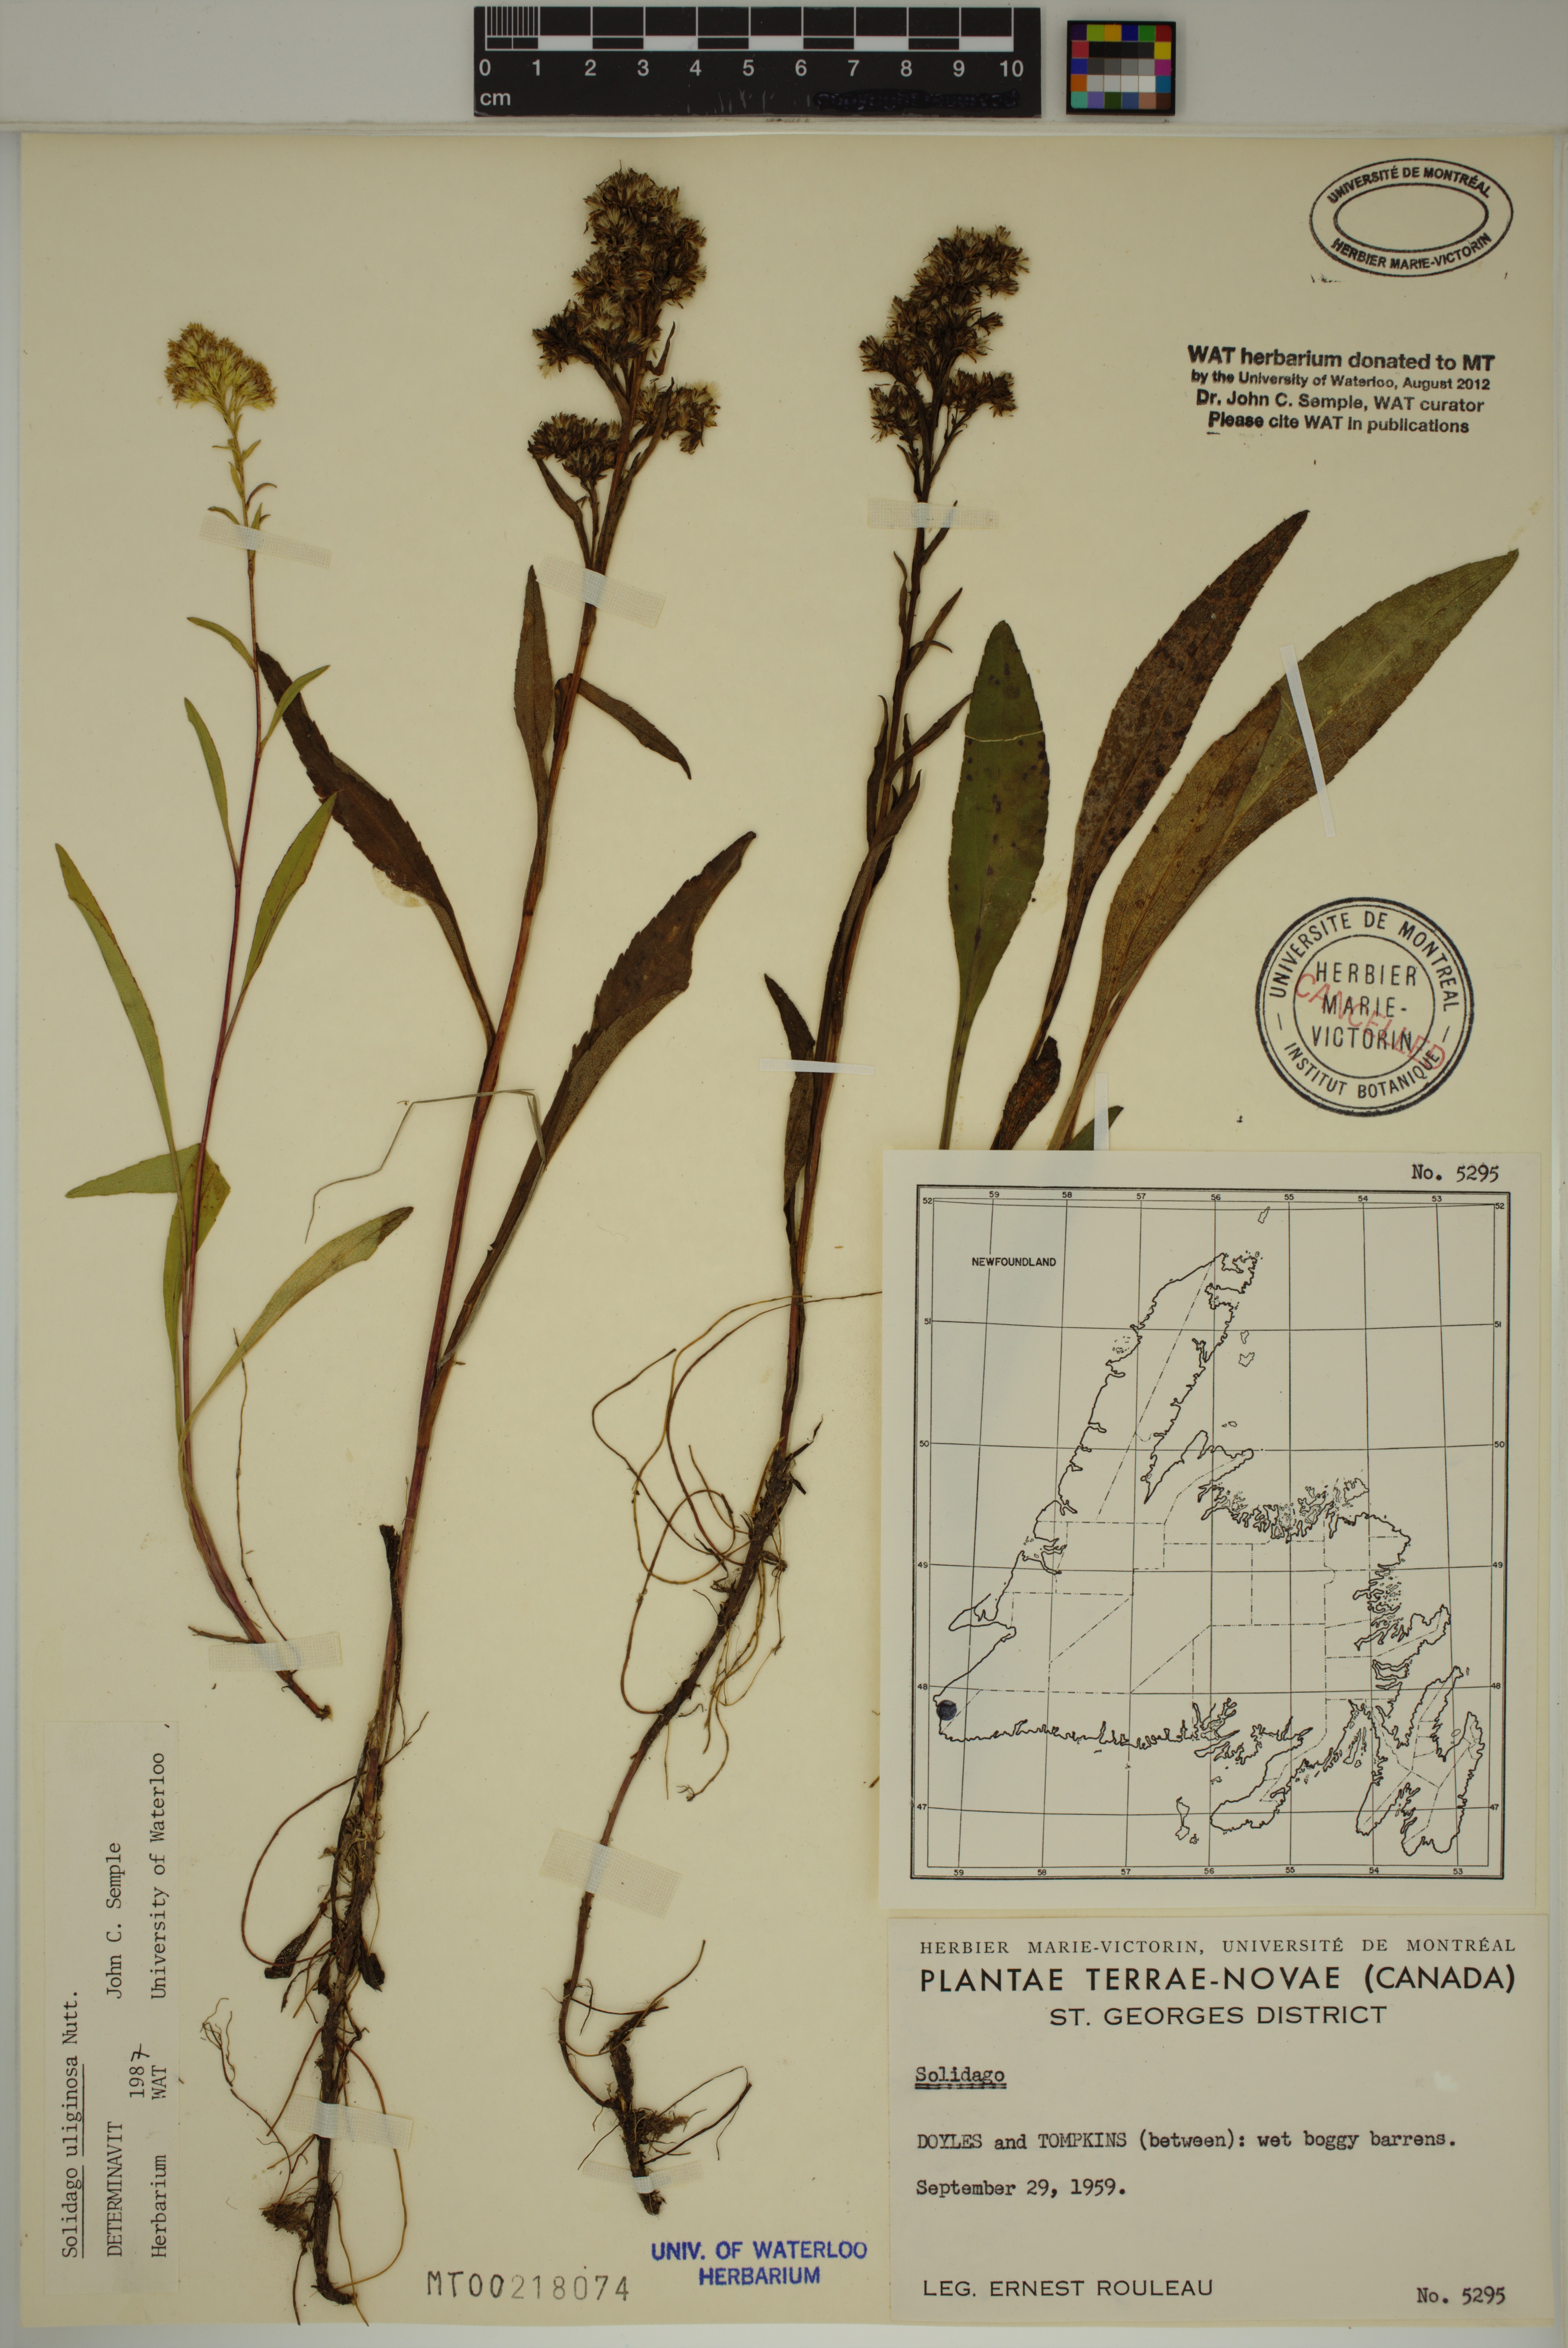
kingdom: Plantae
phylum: Tracheophyta
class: Magnoliopsida
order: Asterales
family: Asteraceae
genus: Solidago
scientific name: Solidago uliginosa
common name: Bog goldenrod
